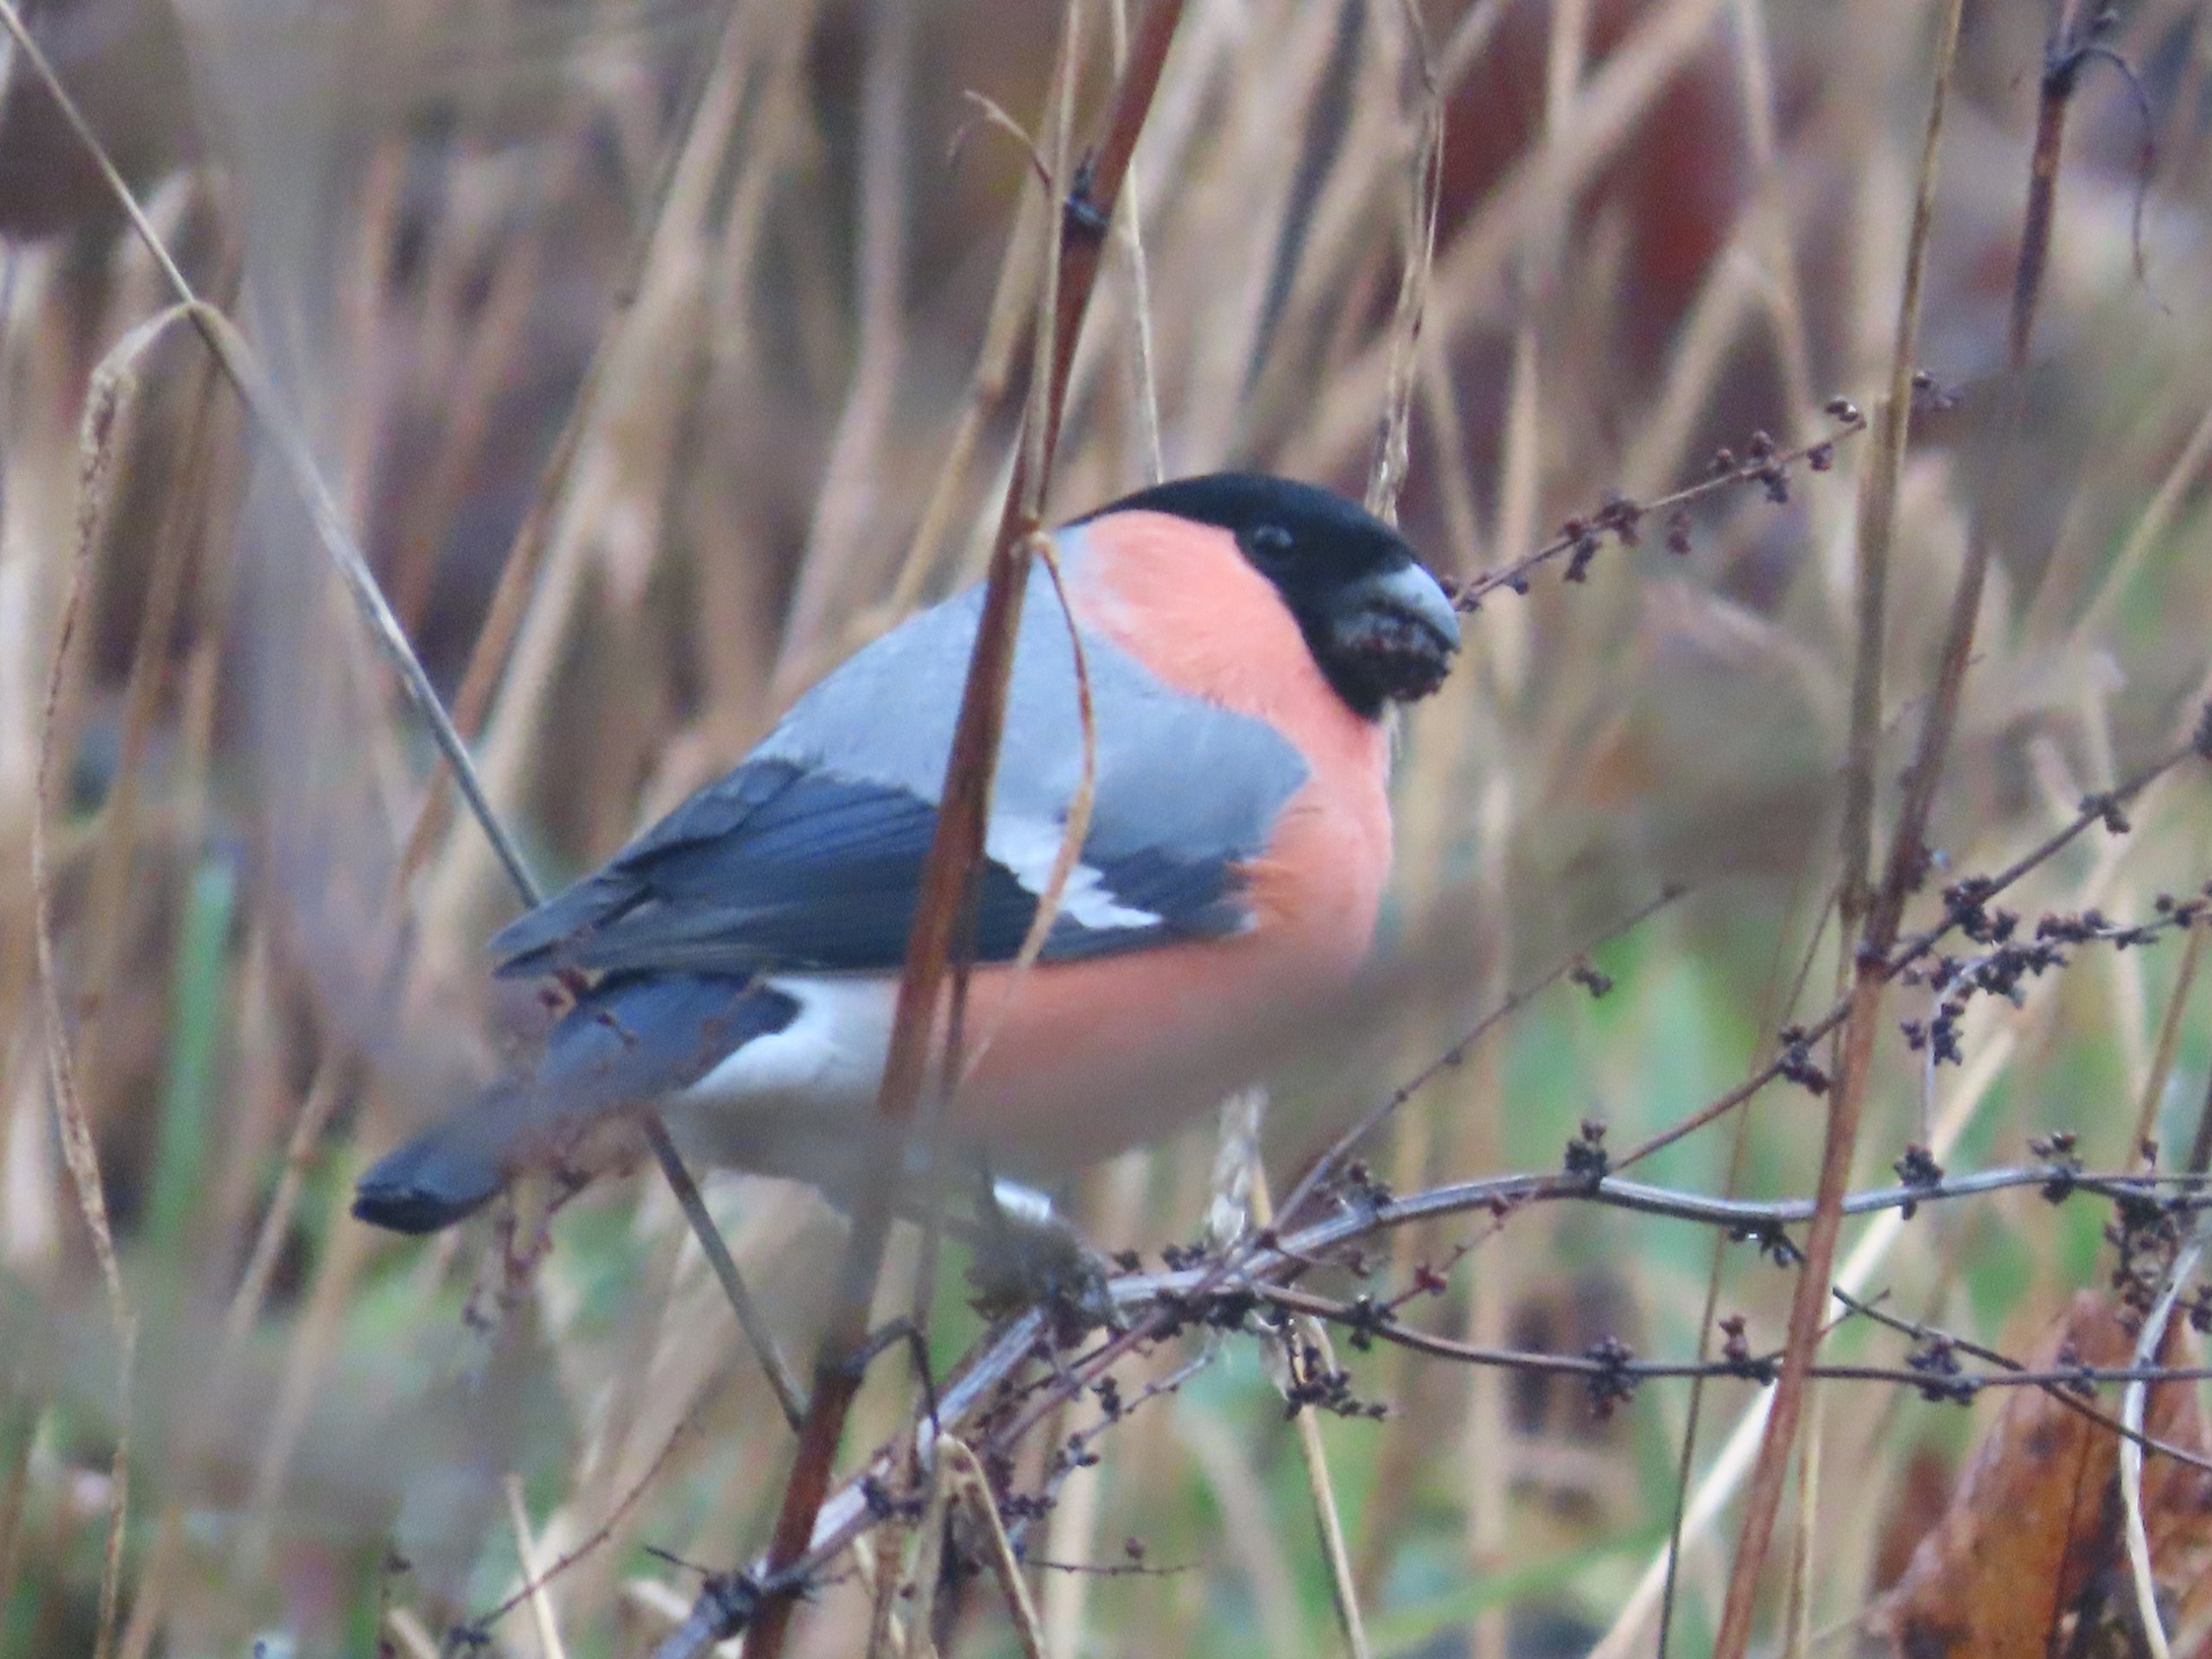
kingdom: Animalia
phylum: Chordata
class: Aves
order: Passeriformes
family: Fringillidae
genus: Pyrrhula
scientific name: Pyrrhula pyrrhula
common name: Dompap
